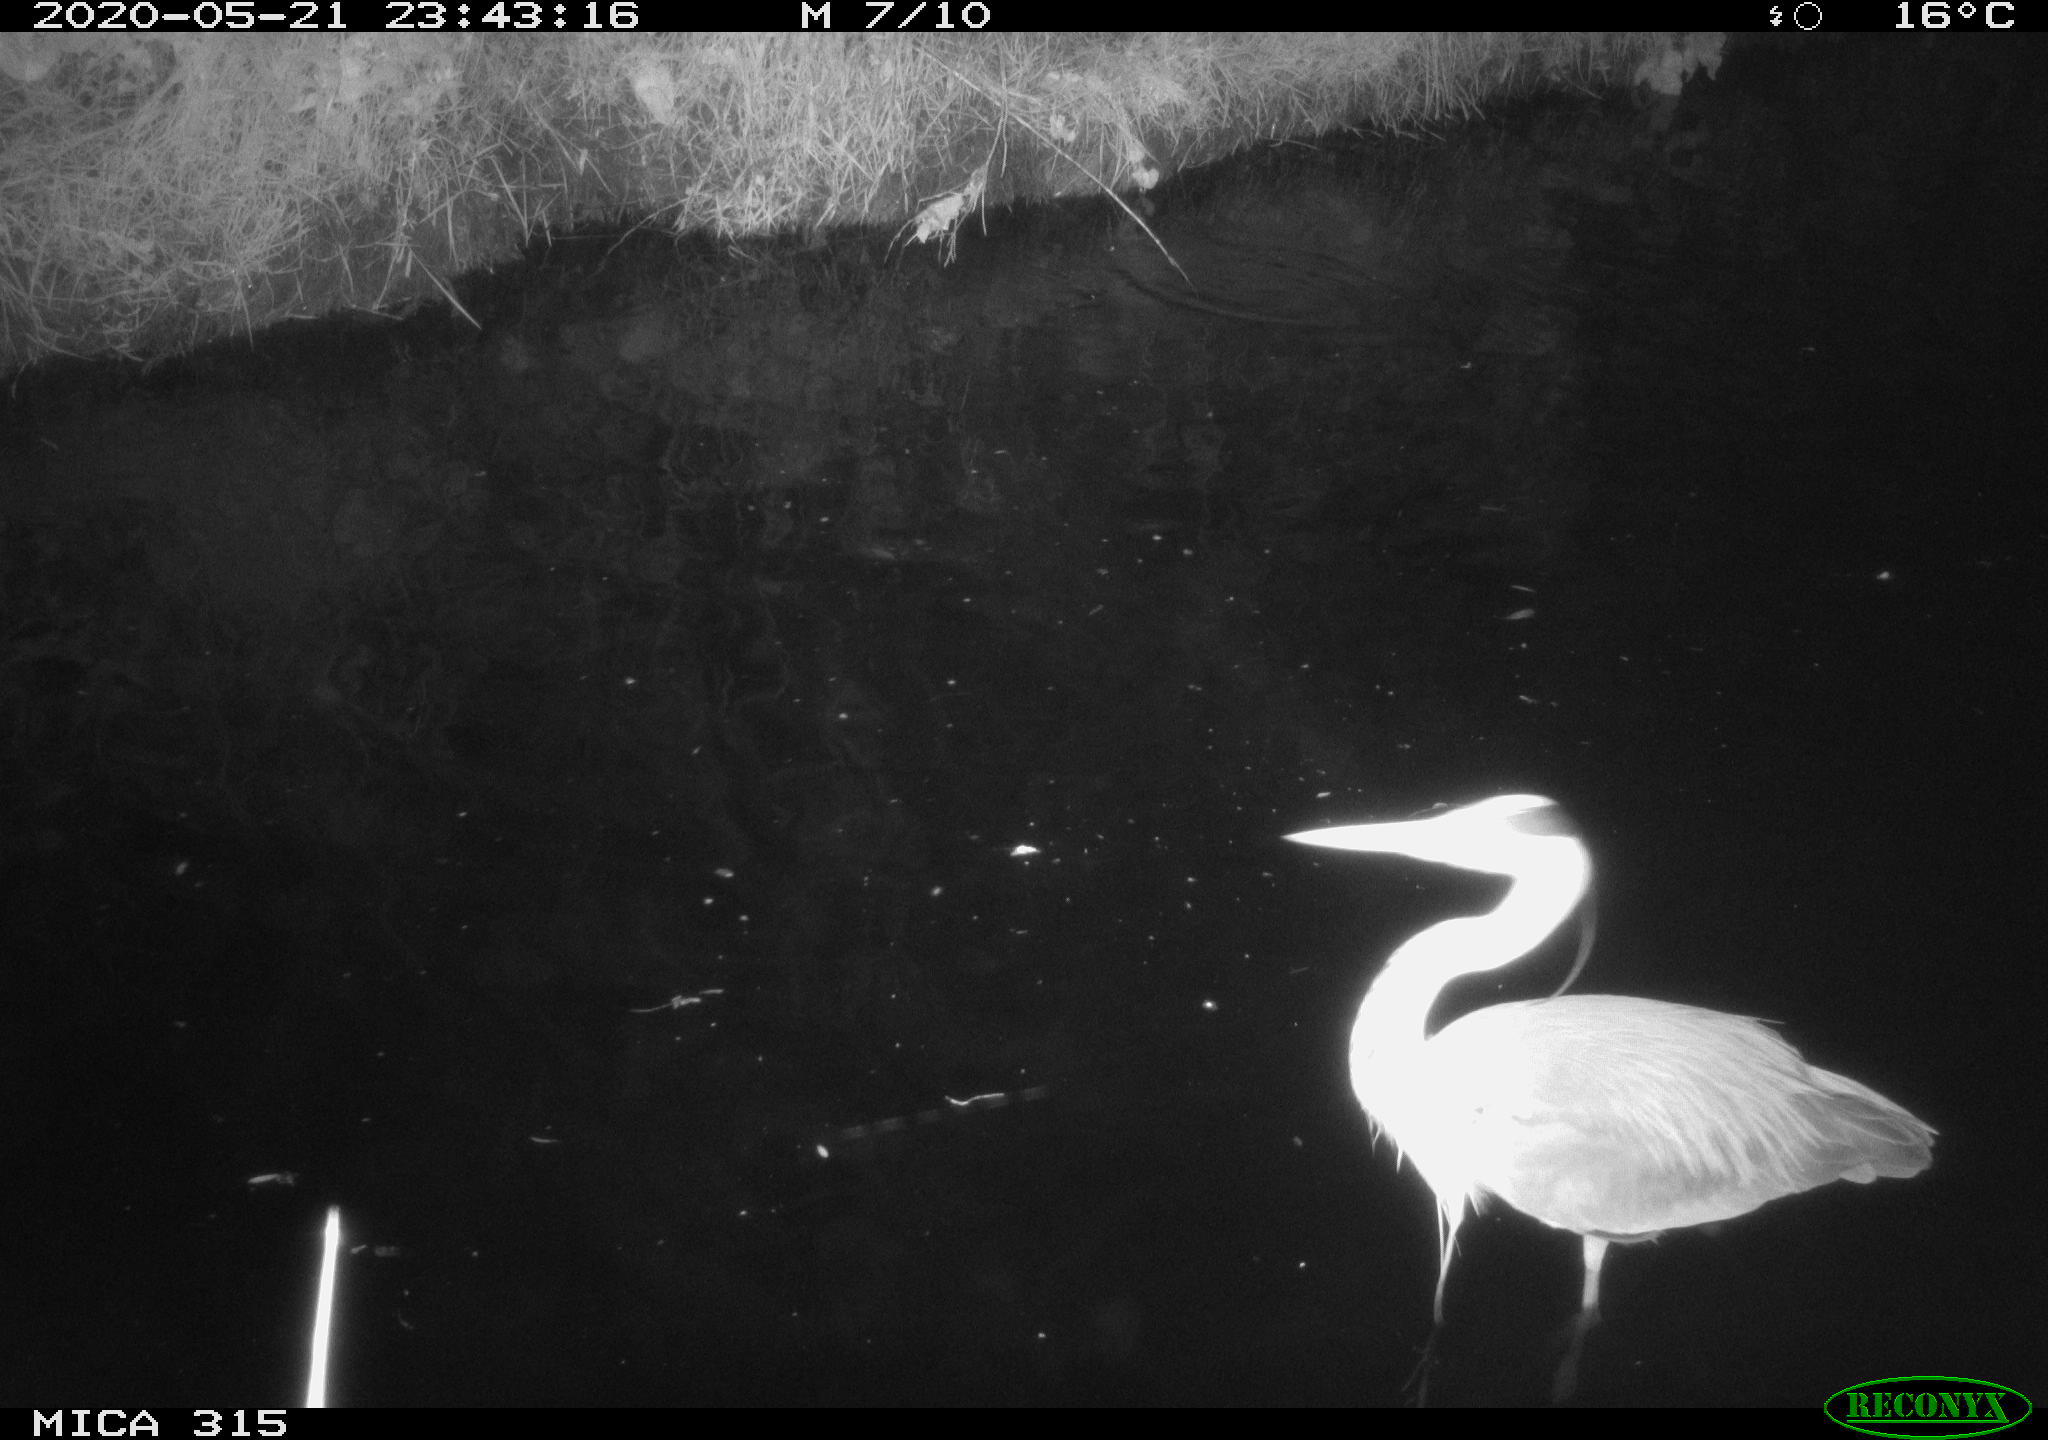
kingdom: Animalia
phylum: Chordata
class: Aves
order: Pelecaniformes
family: Ardeidae
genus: Ardea
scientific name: Ardea cinerea
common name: Grey heron
